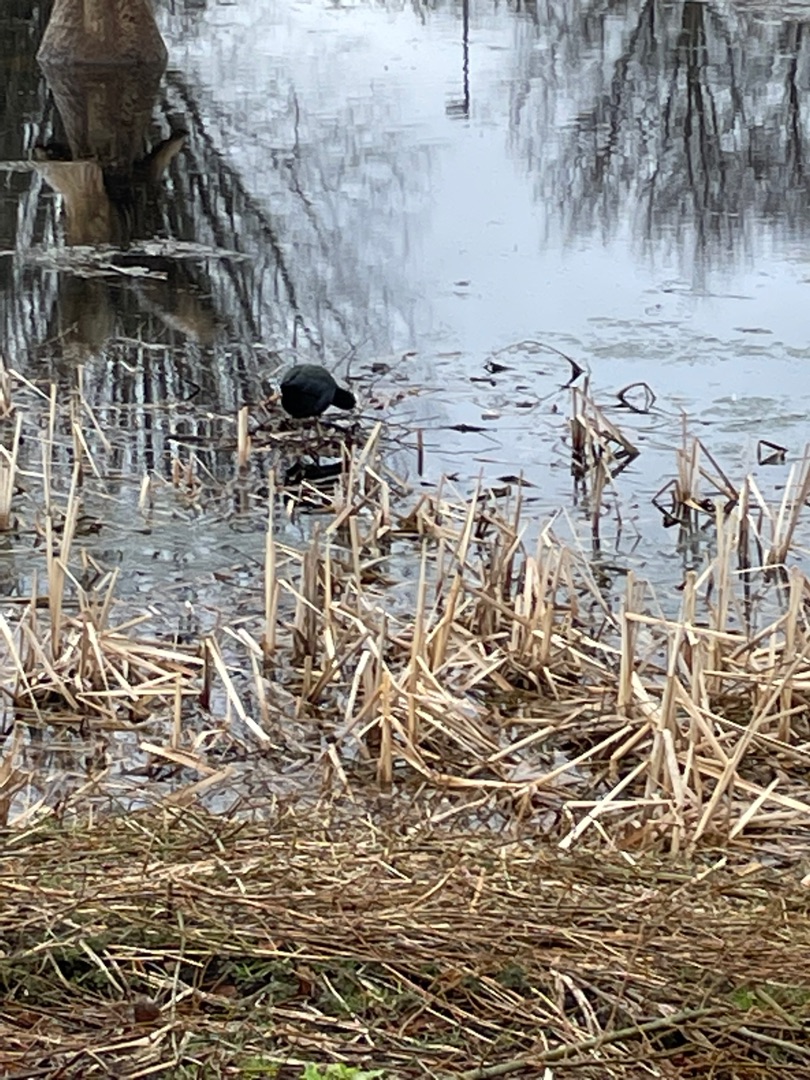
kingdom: Animalia
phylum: Chordata
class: Aves
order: Gruiformes
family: Rallidae
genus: Fulica
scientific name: Fulica atra
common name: Blishøne
